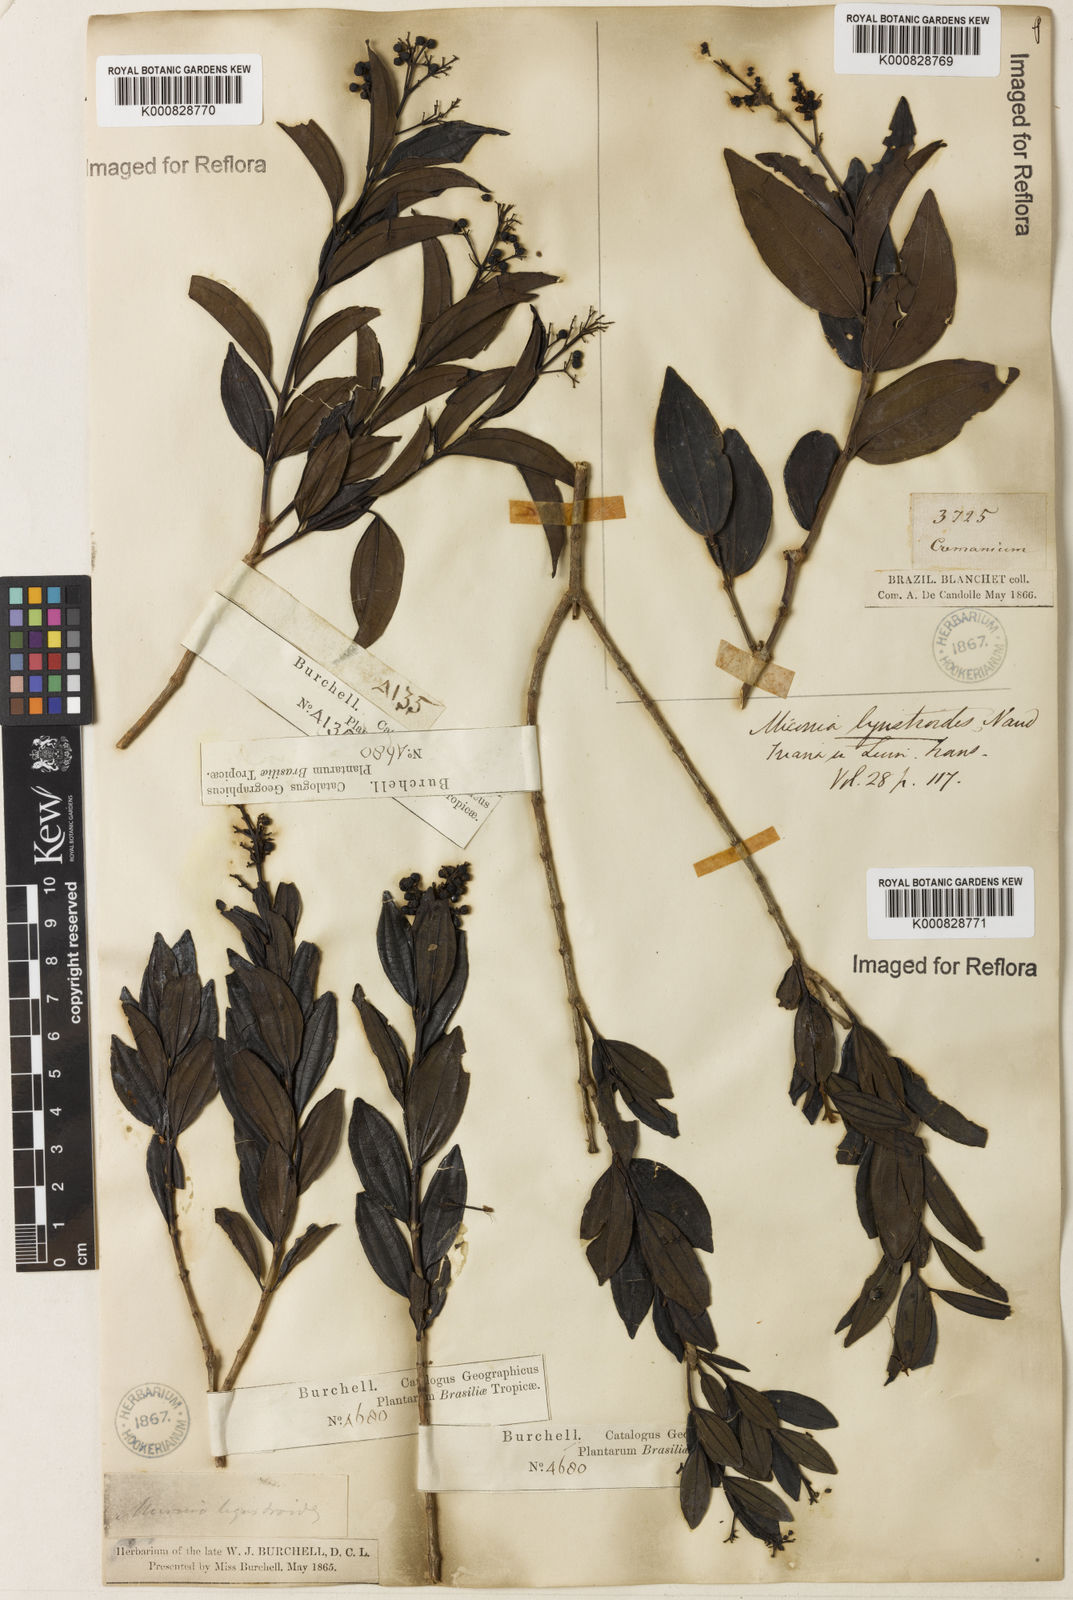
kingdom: Plantae
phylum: Tracheophyta
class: Magnoliopsida
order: Myrtales
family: Melastomataceae
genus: Miconia
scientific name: Miconia ligustroides
